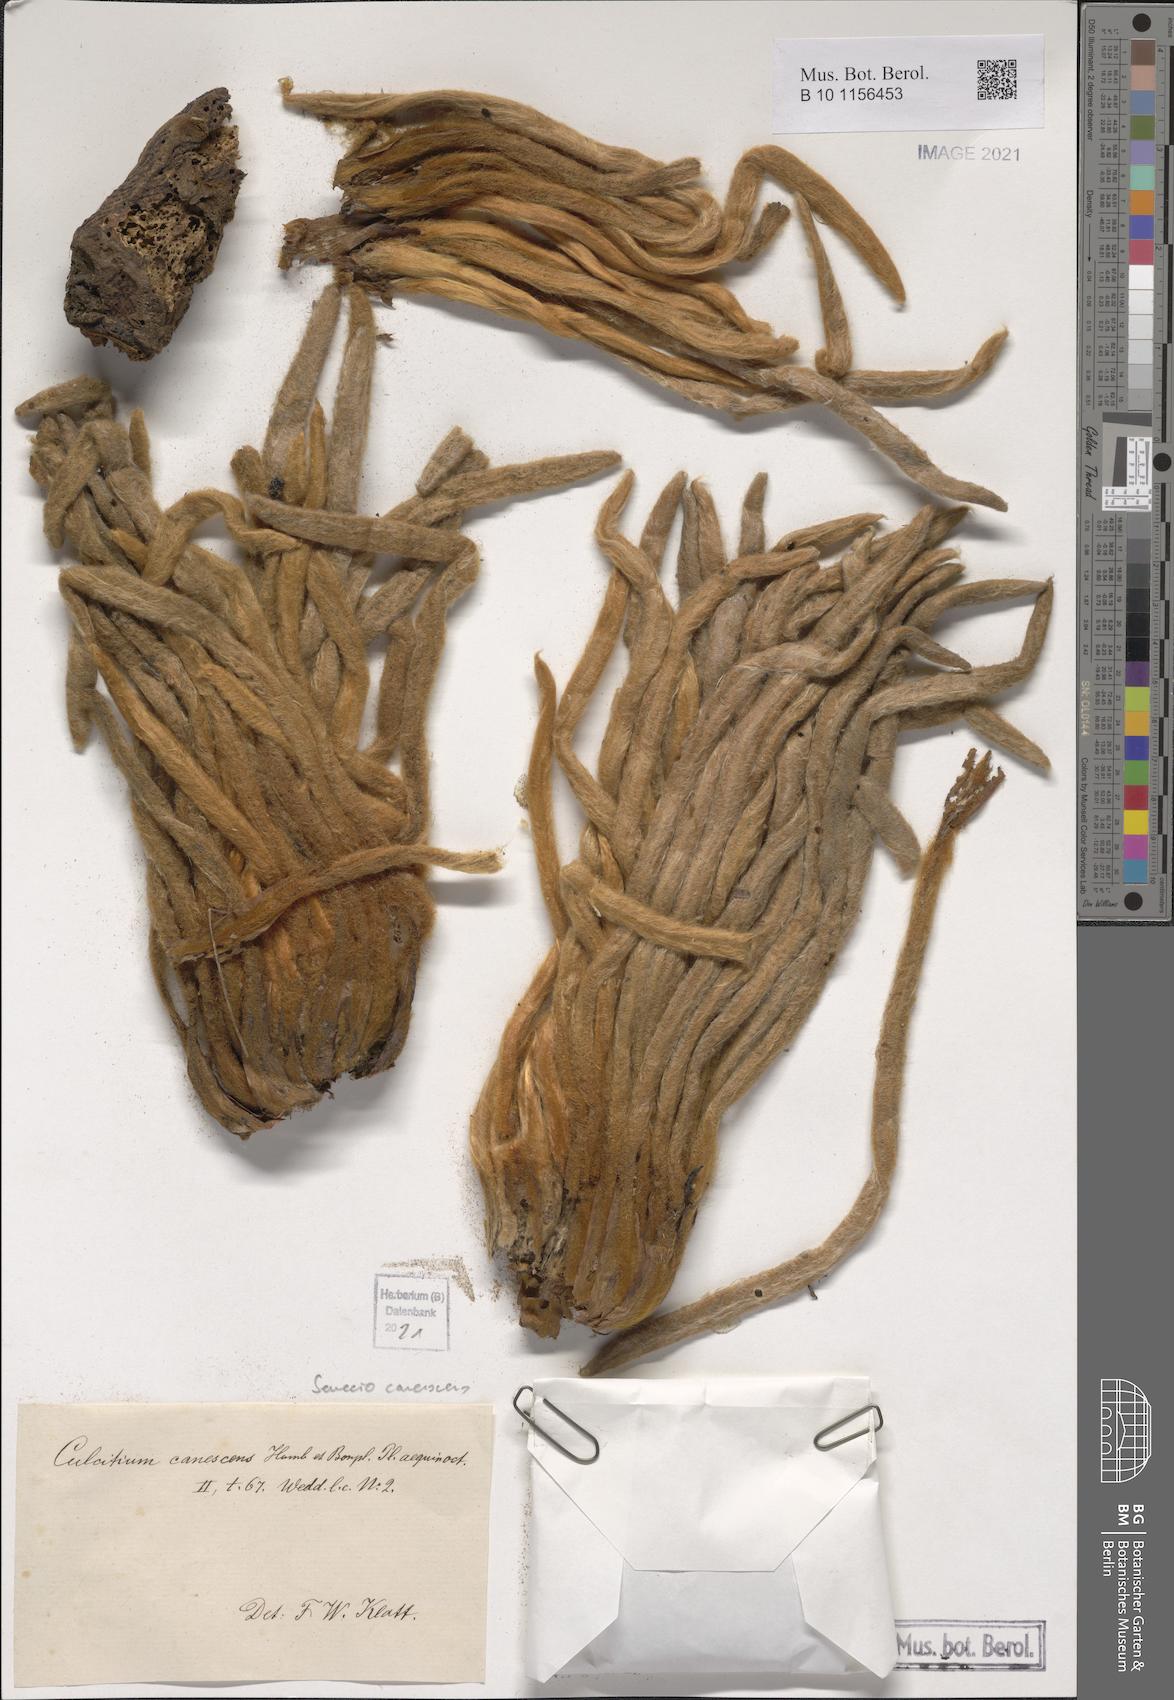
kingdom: Plantae
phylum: Tracheophyta
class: Magnoliopsida
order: Asterales
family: Asteraceae
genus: Culcitium
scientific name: Culcitium canescens
